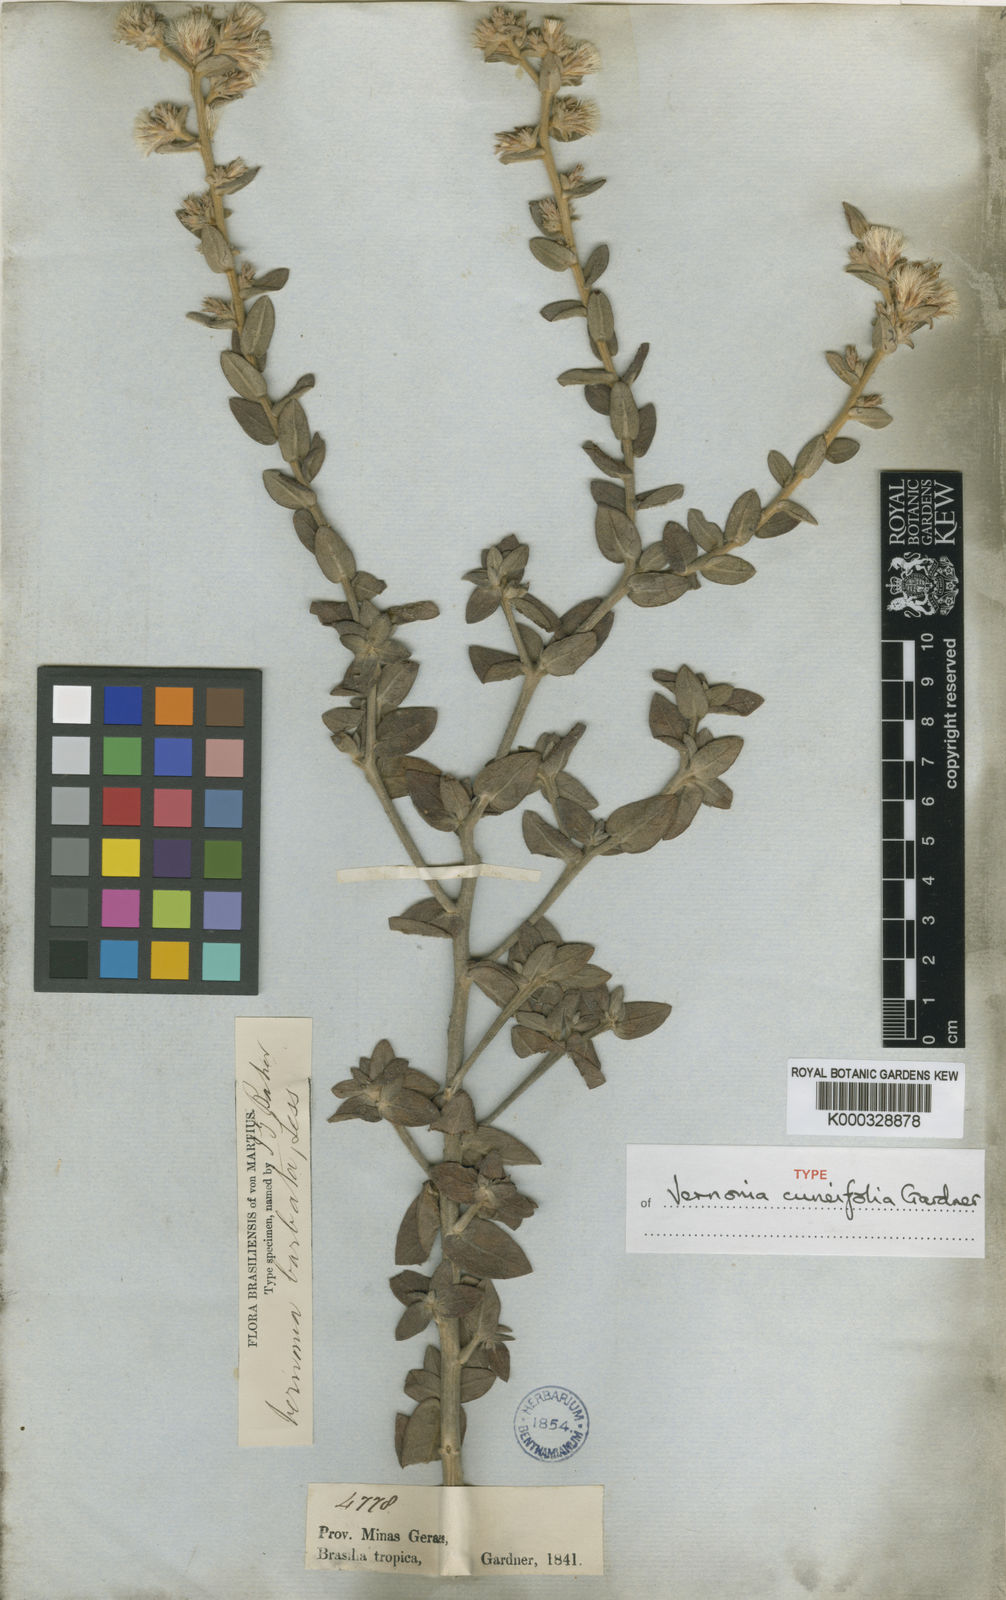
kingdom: Plantae
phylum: Tracheophyta
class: Magnoliopsida
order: Asterales
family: Asteraceae
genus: Lepidaploa
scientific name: Lepidaploa barbata
